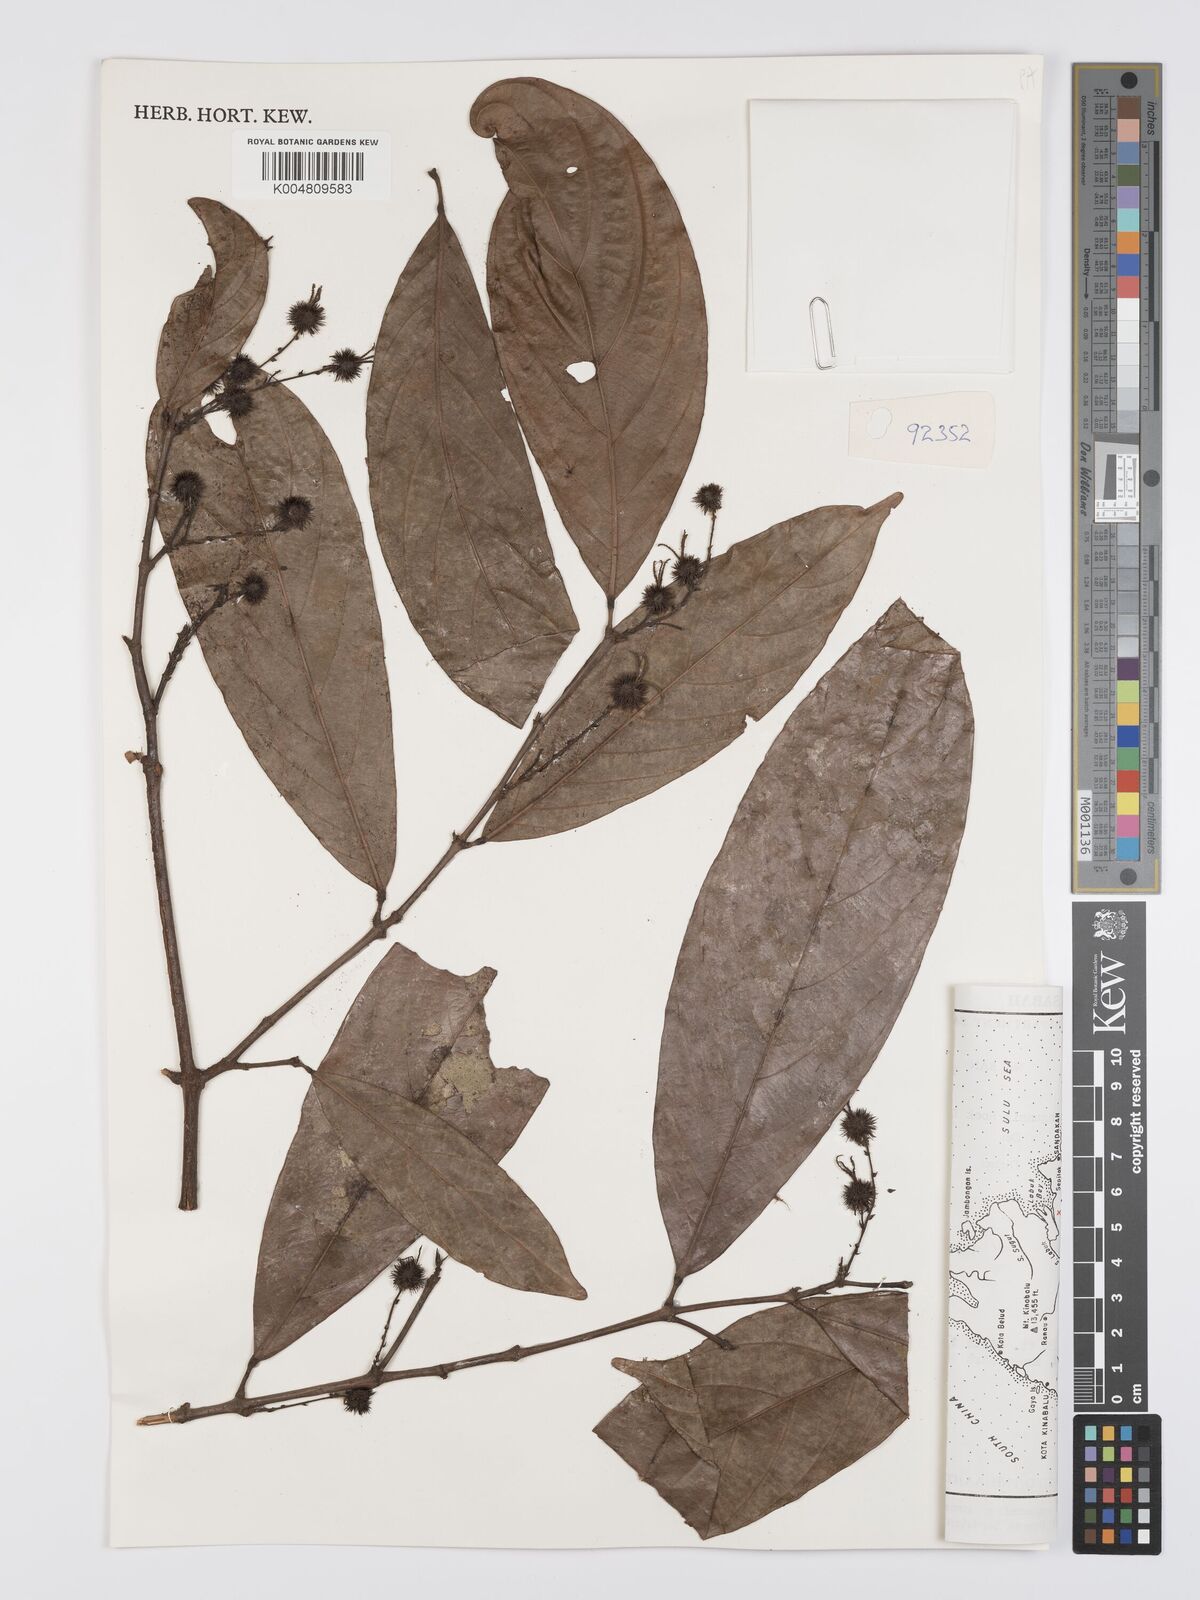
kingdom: Plantae
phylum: Tracheophyta
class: Magnoliopsida
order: Malpighiales
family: Euphorbiaceae
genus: Hancea
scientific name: Hancea penangensis
